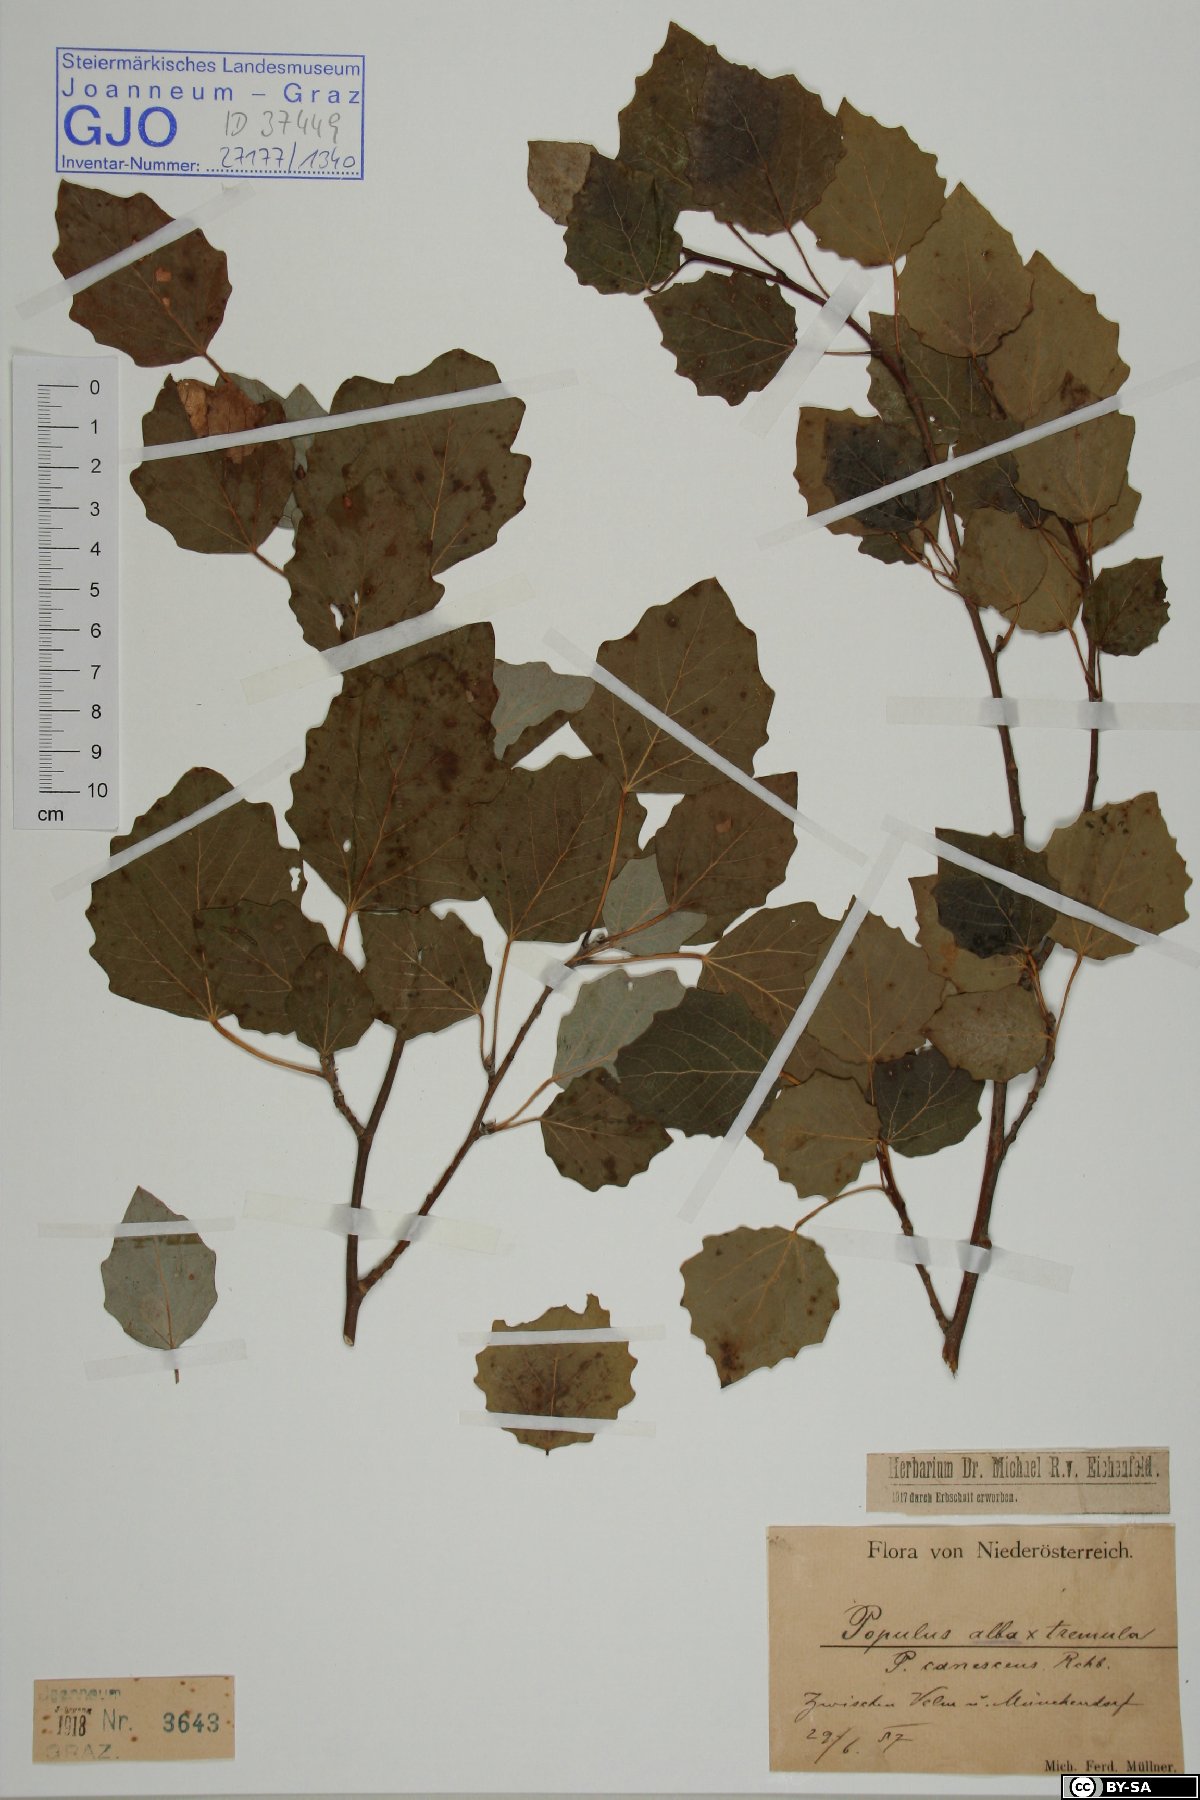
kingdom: Plantae
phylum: Tracheophyta
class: Magnoliopsida
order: Malpighiales
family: Salicaceae
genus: Populus
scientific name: Populus alba
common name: White poplar
